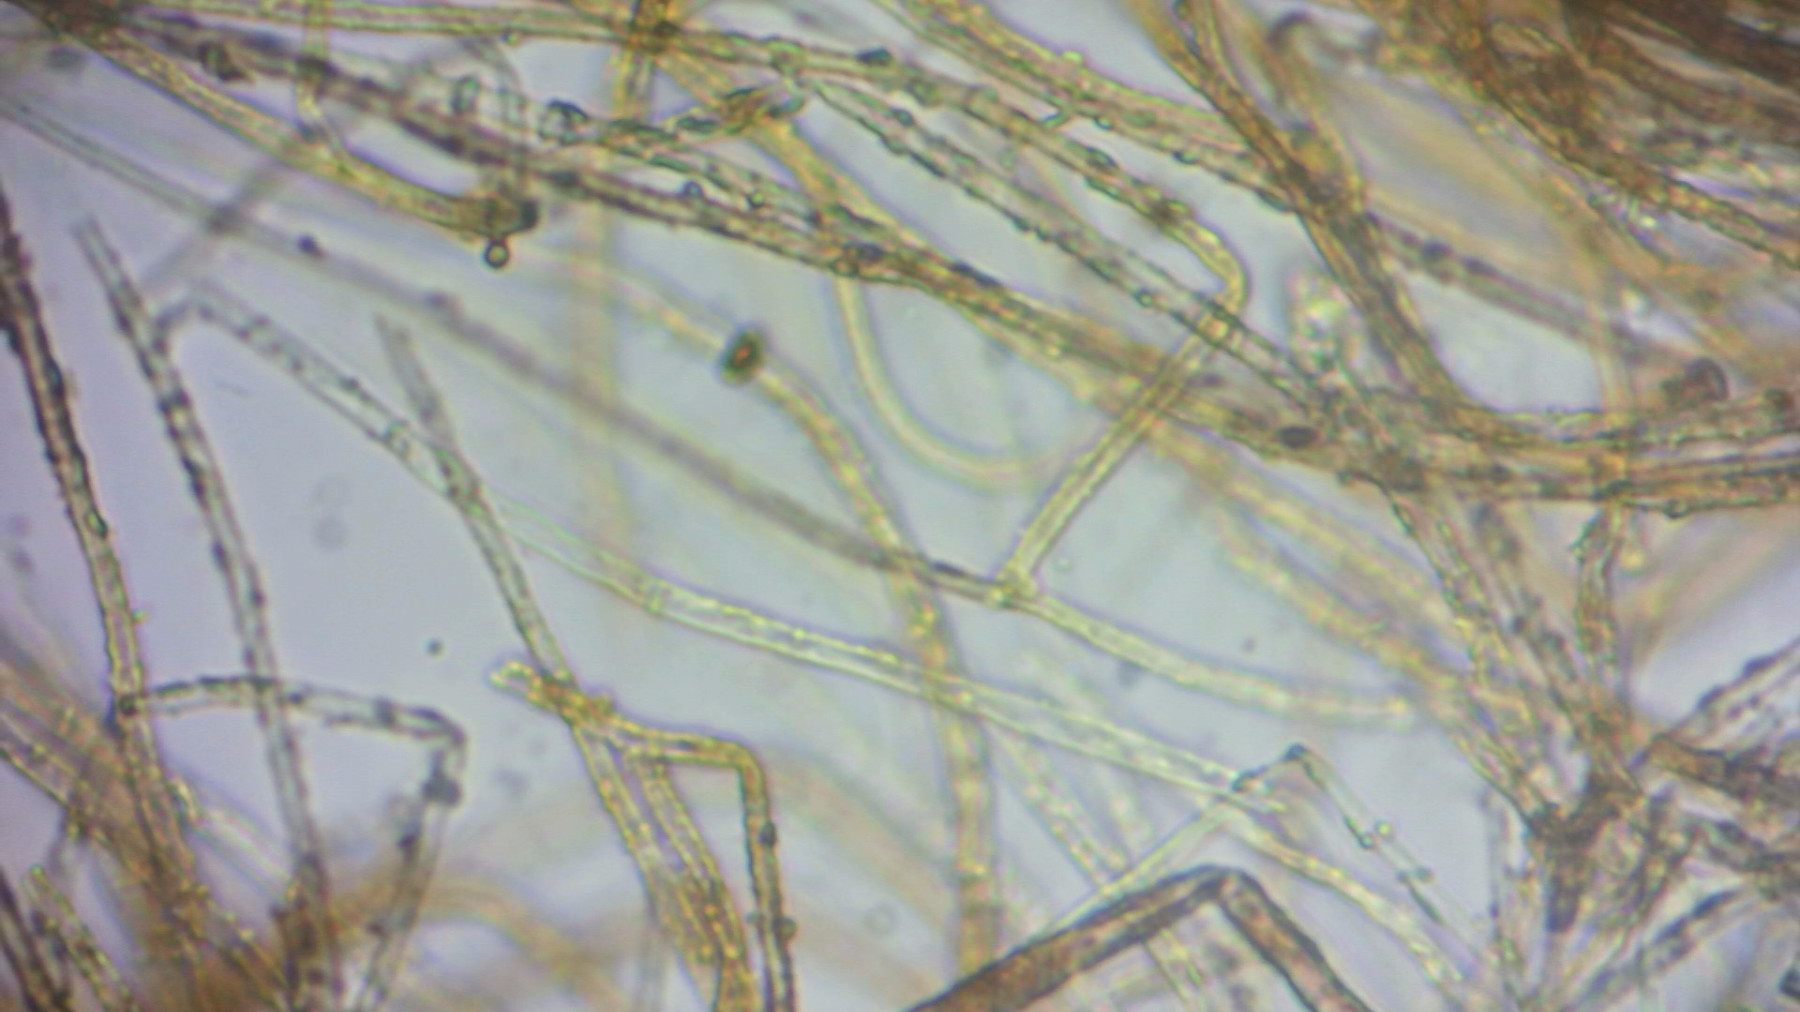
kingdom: Fungi
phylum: Basidiomycota
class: Agaricomycetes
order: Atheliales
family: Atheliaceae
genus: Piloderma
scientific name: Piloderma
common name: førnehinde
